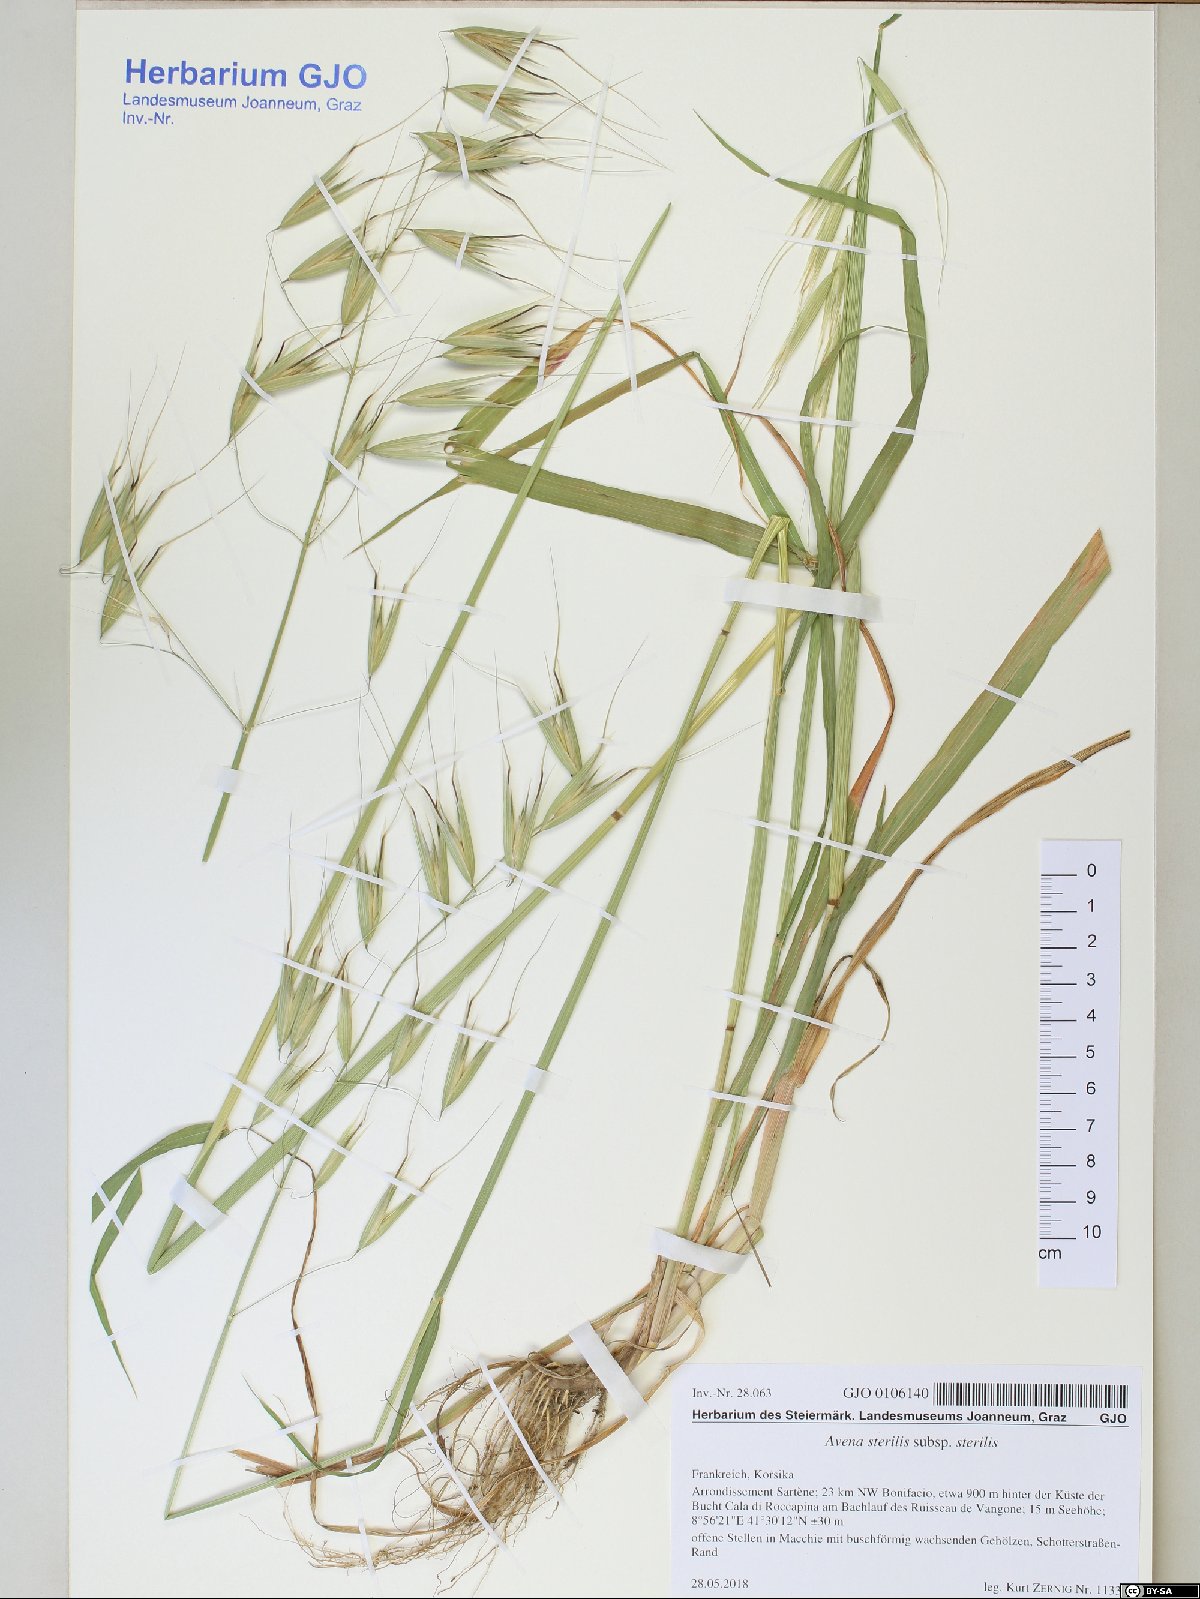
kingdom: Plantae
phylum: Tracheophyta
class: Liliopsida
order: Poales
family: Poaceae
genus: Avena
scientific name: Avena sterilis
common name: Animated oat
